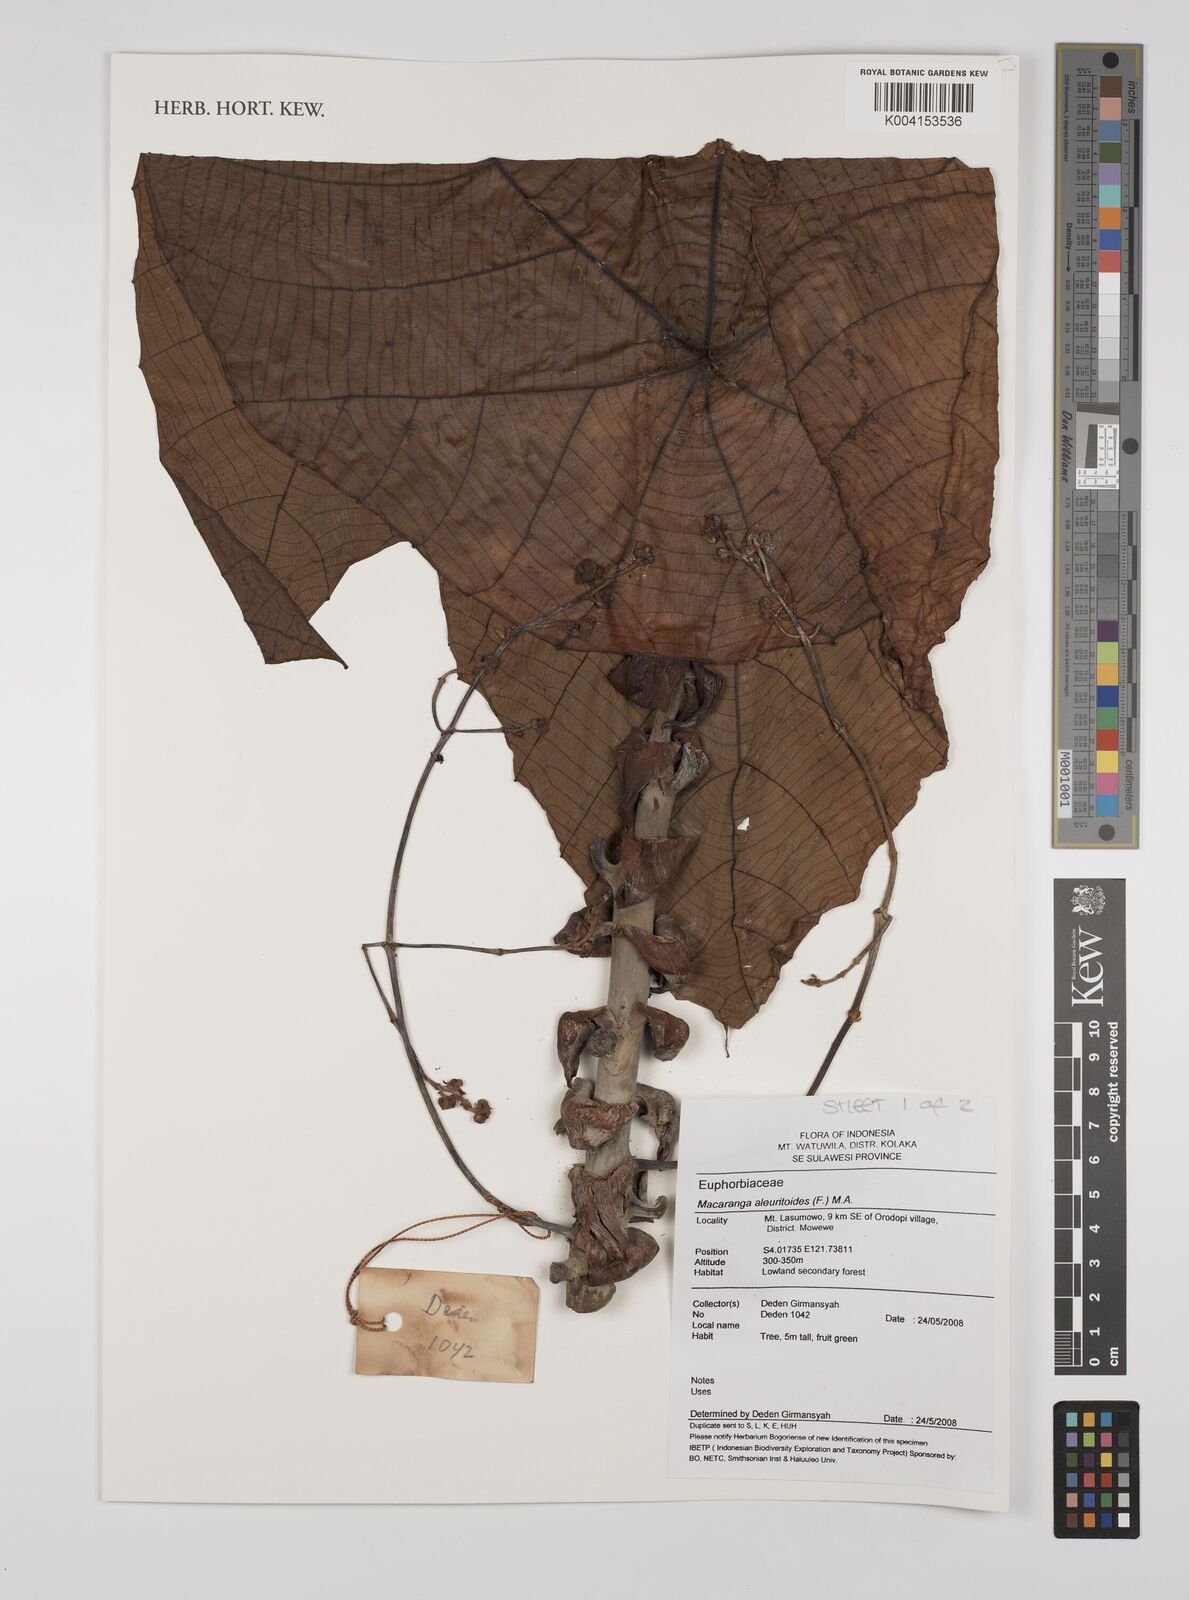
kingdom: Plantae
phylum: Tracheophyta
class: Magnoliopsida
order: Malpighiales
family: Euphorbiaceae
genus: Macaranga
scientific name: Macaranga aleuritoides
